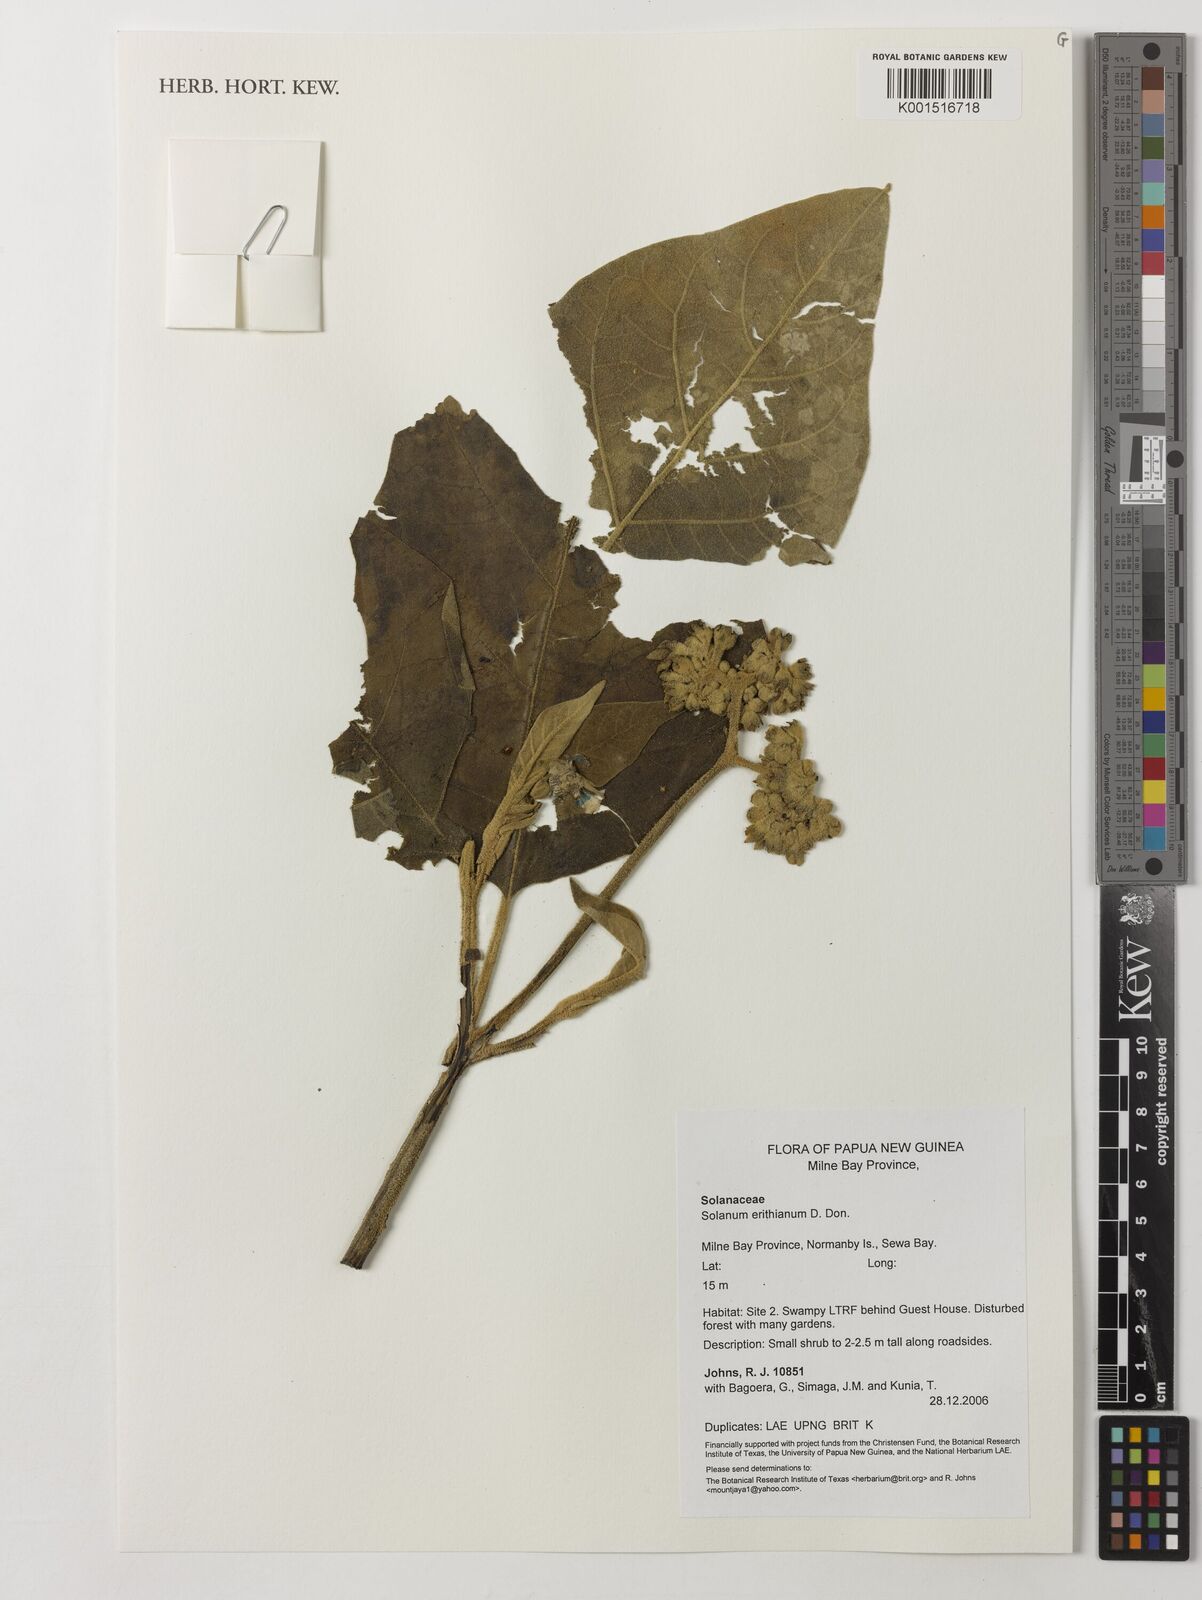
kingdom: Plantae
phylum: Tracheophyta
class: Magnoliopsida
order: Solanales
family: Solanaceae
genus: Solanum
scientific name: Solanum
